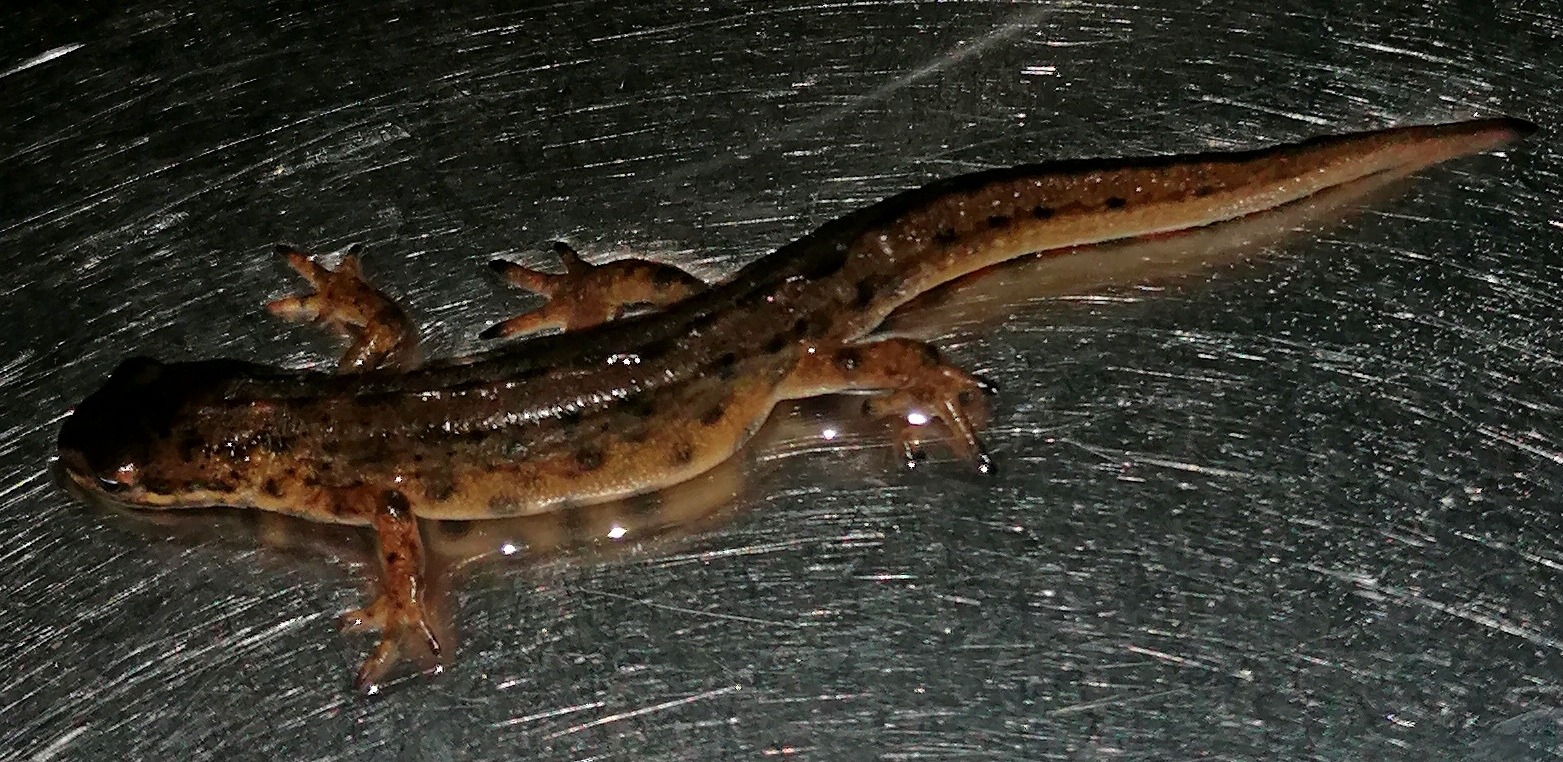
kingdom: Animalia
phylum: Chordata
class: Amphibia
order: Caudata
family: Salamandridae
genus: Lissotriton
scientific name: Lissotriton vulgaris
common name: Lille vandsalamander
